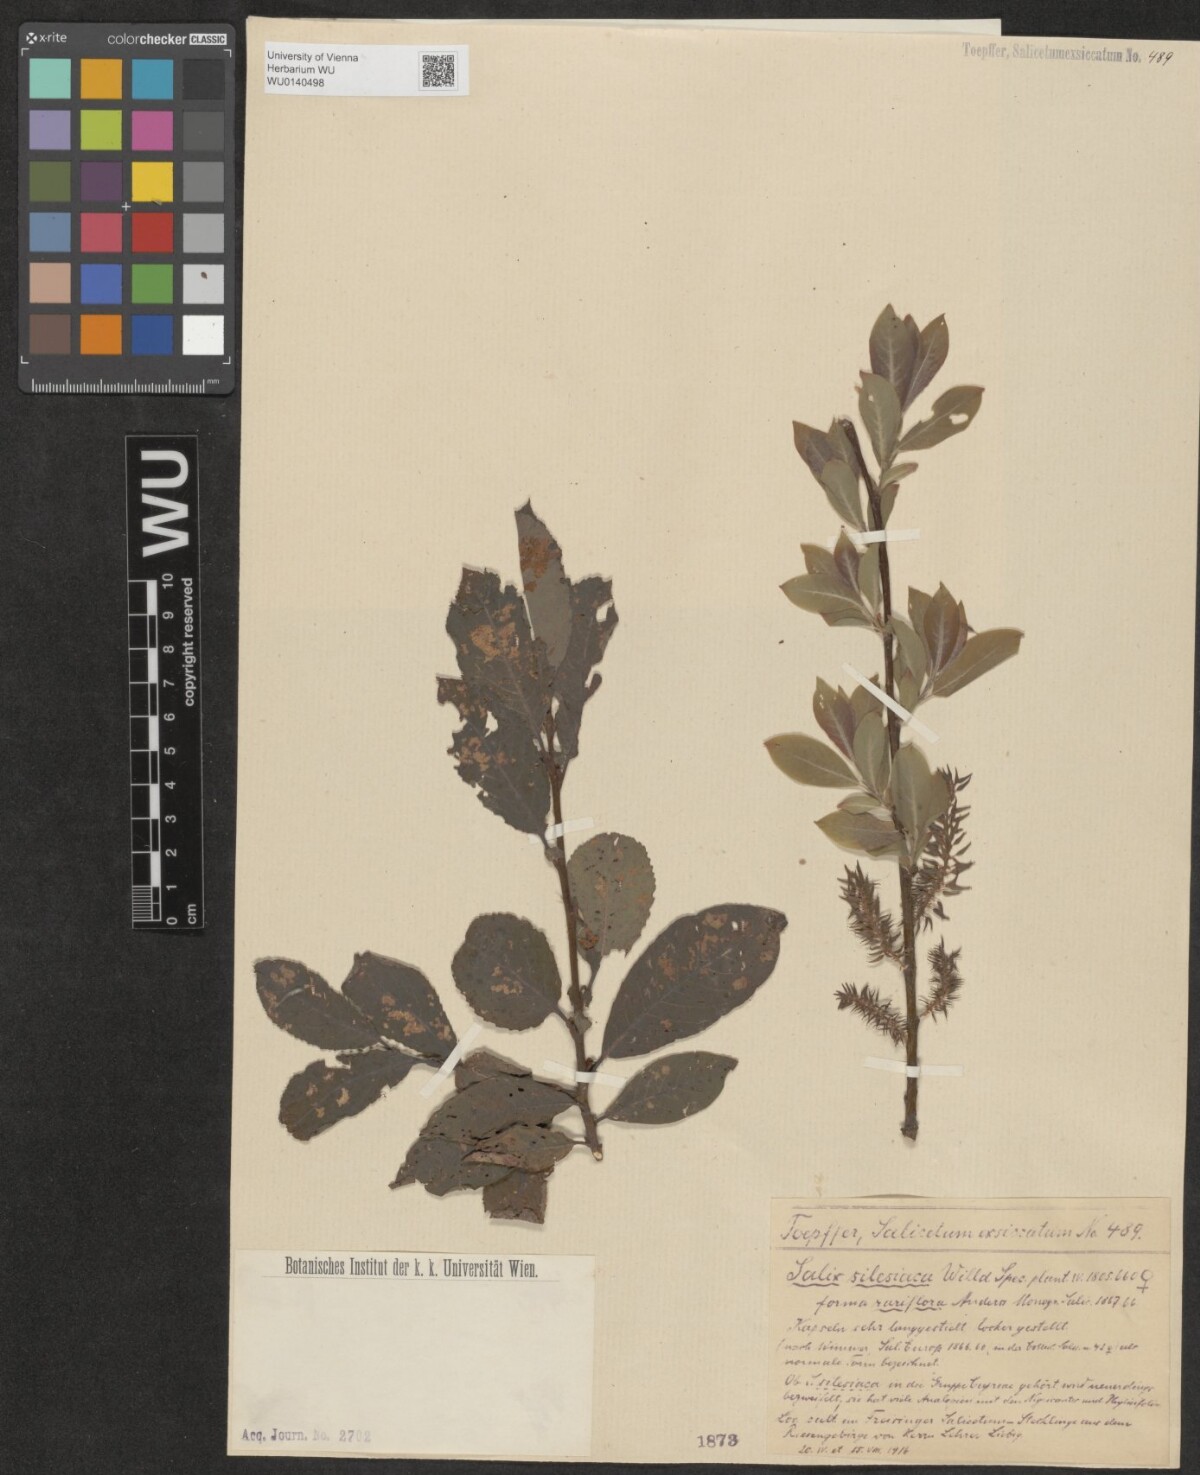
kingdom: Plantae
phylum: Tracheophyta
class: Magnoliopsida
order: Malpighiales
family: Salicaceae
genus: Salix
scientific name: Salix silesiaca
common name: Silesian willow
